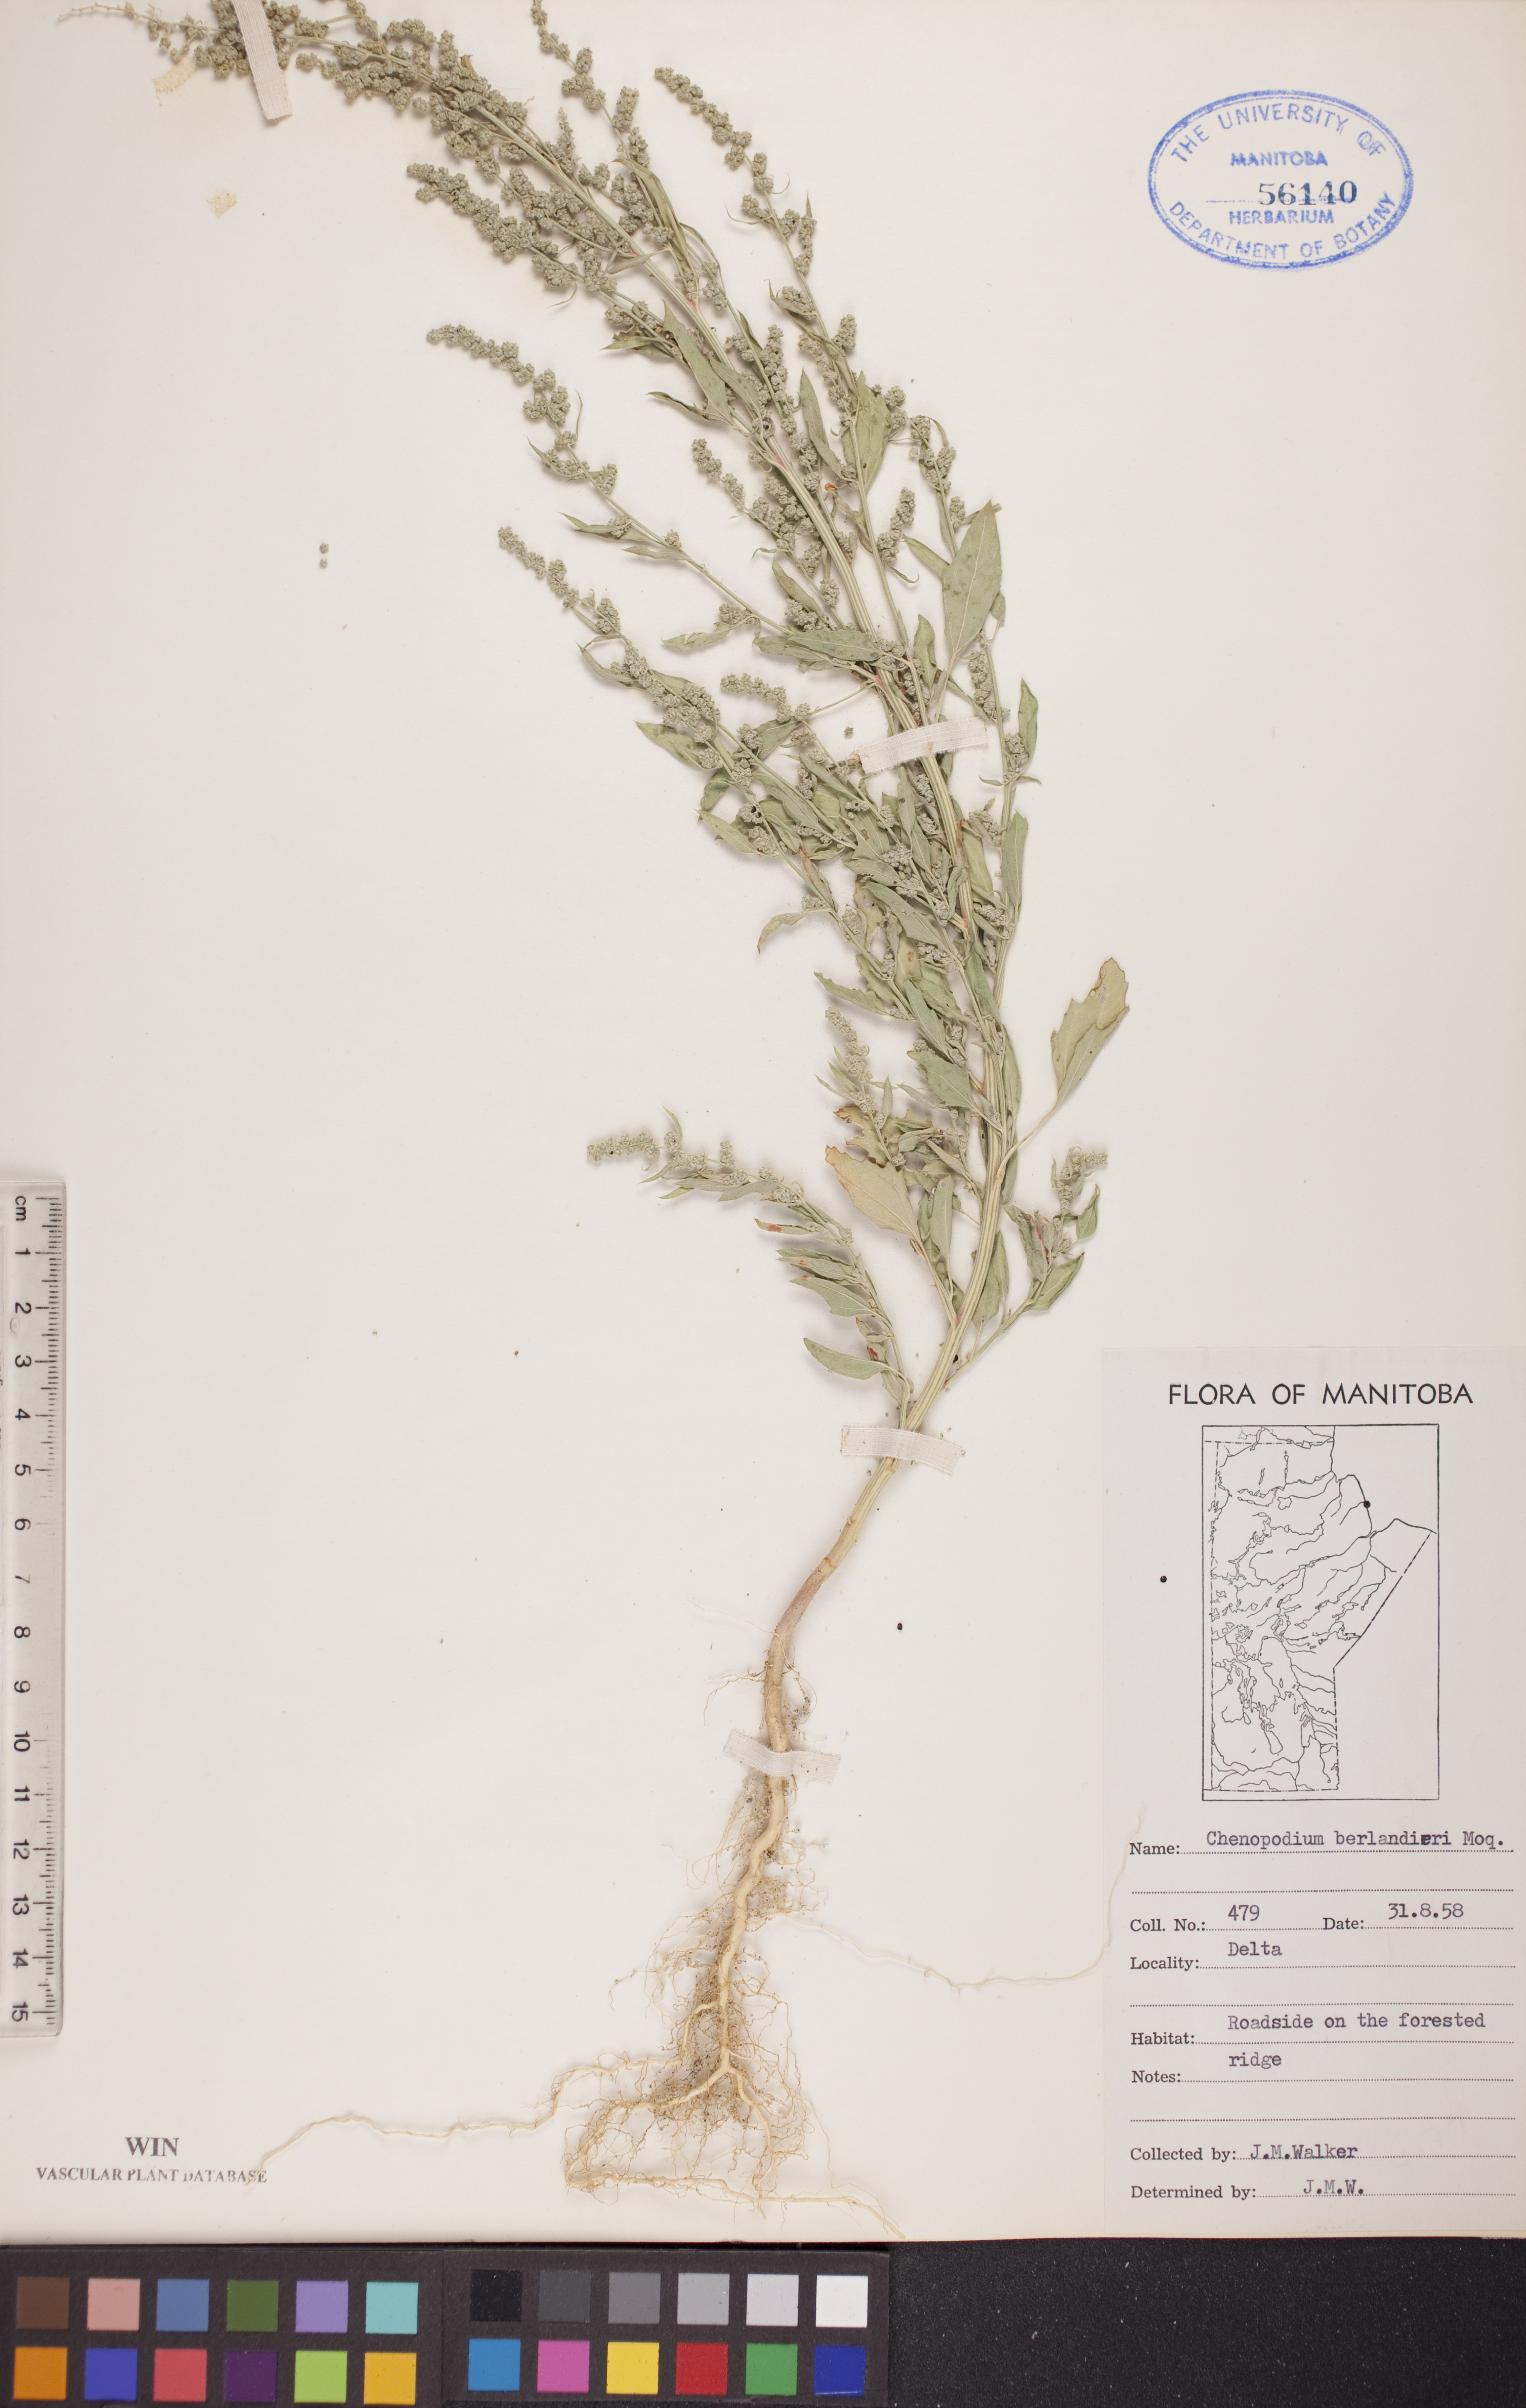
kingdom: Plantae
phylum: Tracheophyta
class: Magnoliopsida
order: Caryophyllales
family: Amaranthaceae
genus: Chenopodium
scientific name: Chenopodium berlandieri
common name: Pit-seed goosefoot
